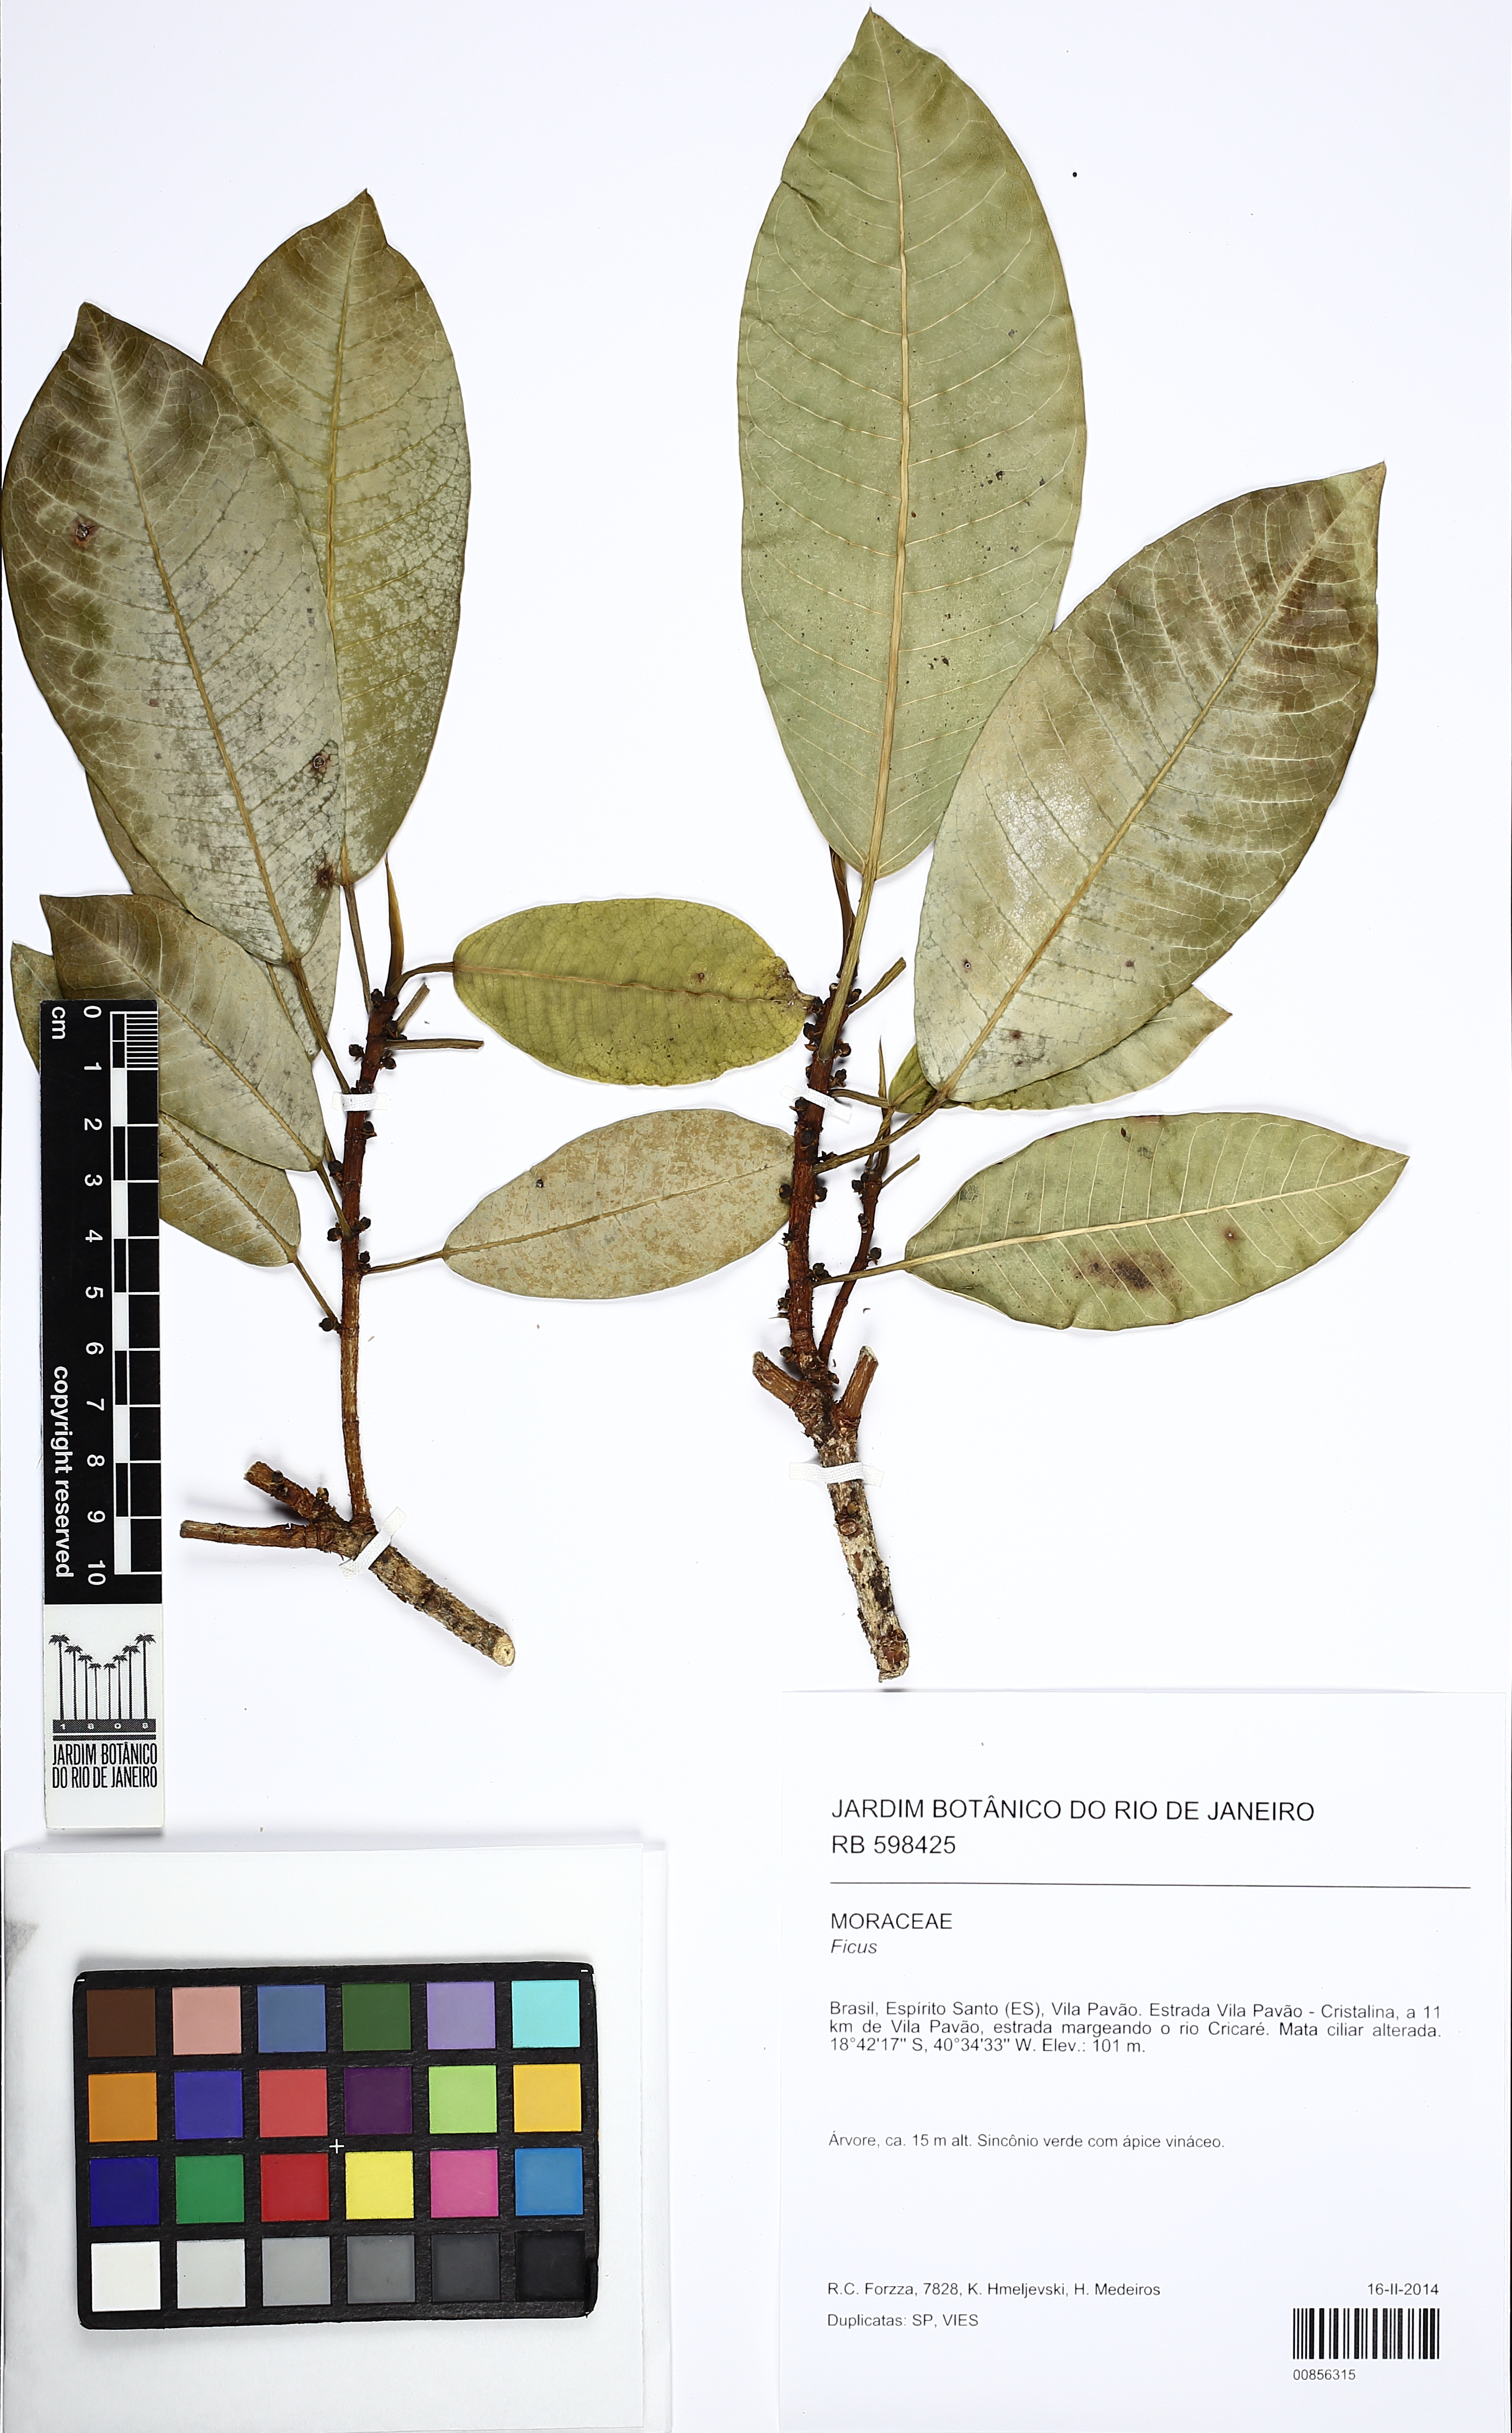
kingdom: Plantae
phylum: Tracheophyta
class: Magnoliopsida
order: Rosales
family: Moraceae
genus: Ficus
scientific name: Ficus obtusiuscula
